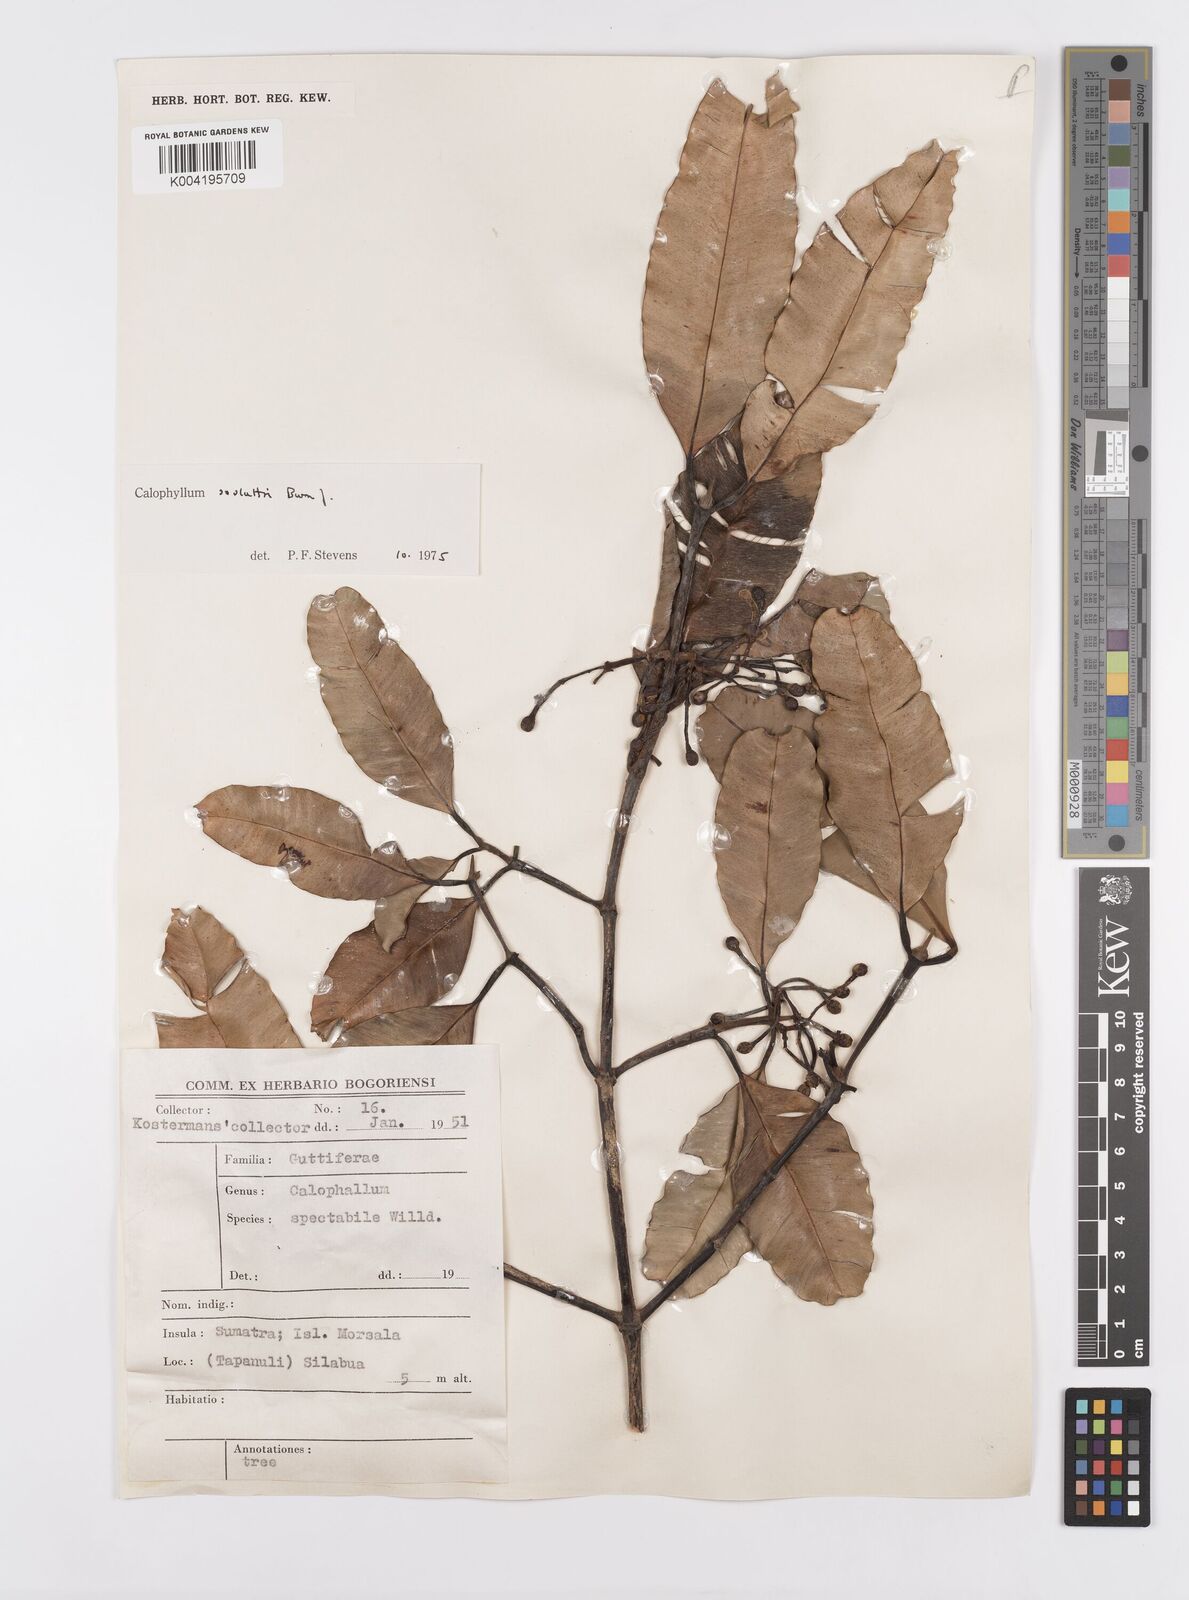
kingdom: Plantae
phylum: Tracheophyta
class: Magnoliopsida
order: Malpighiales
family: Calophyllaceae
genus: Calophyllum
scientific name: Calophyllum soulattri
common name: Bitangoor boonot
